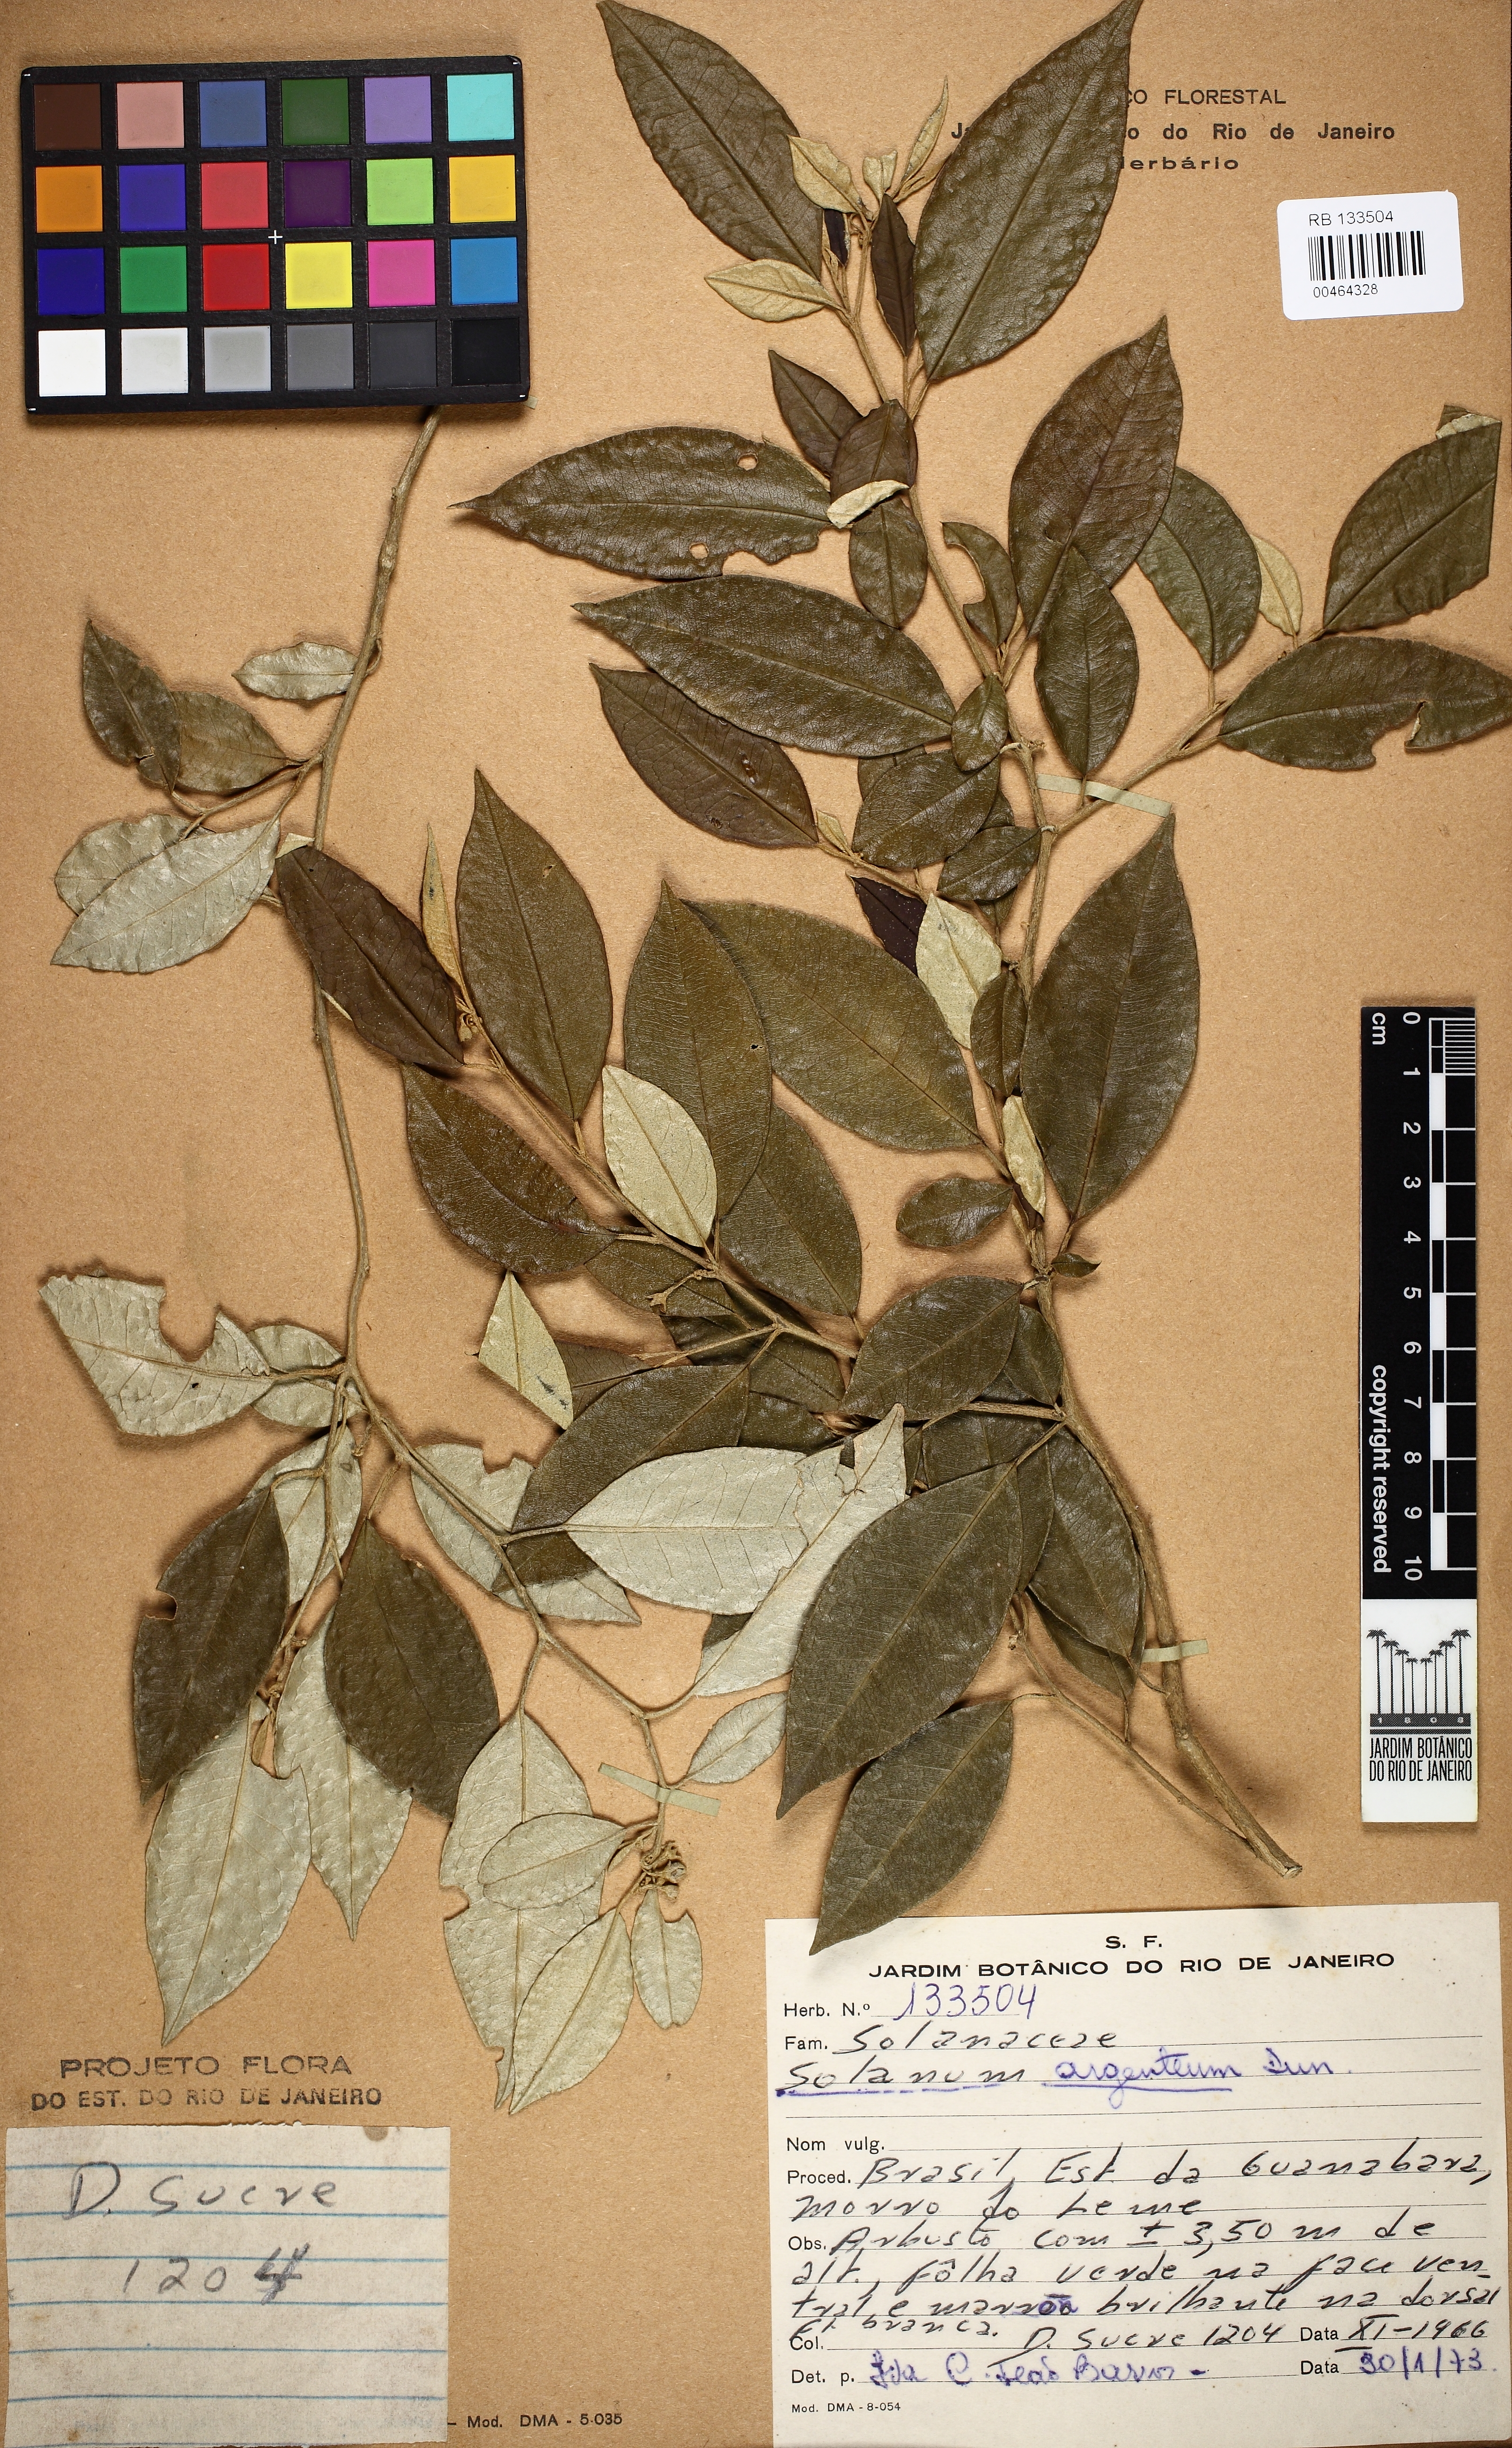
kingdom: Plantae
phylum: Tracheophyta
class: Magnoliopsida
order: Solanales
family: Solanaceae
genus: Solanum
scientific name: Solanum swartzianum
